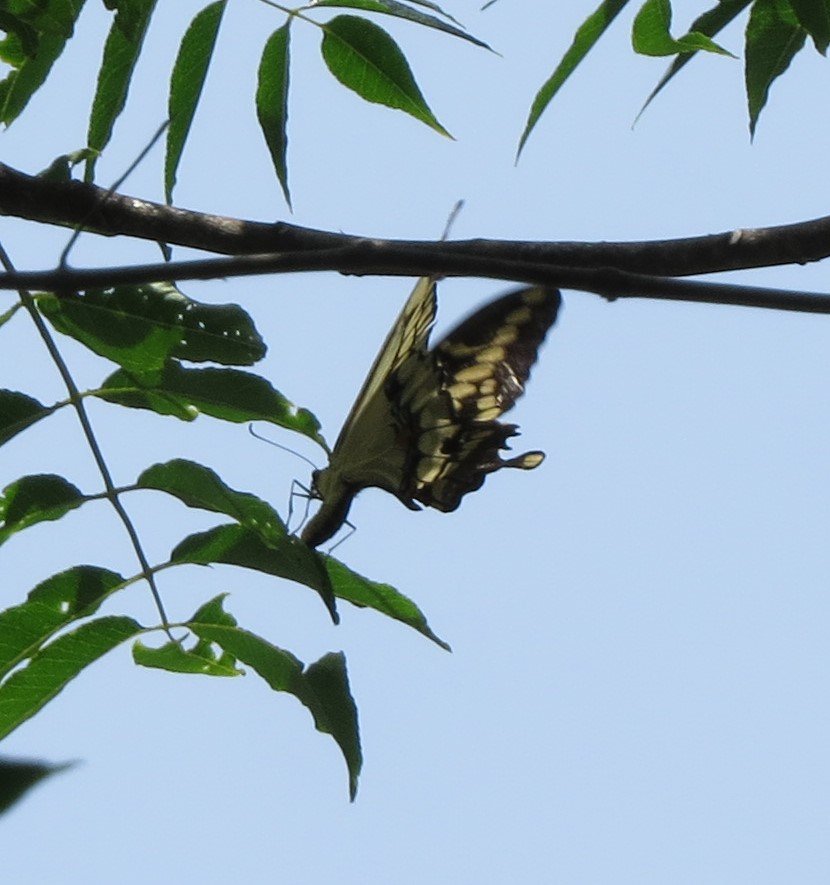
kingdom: Animalia
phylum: Arthropoda
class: Insecta
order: Lepidoptera
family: Papilionidae
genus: Papilio
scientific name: Papilio cresphontes
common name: Eastern Giant Swallowtail
